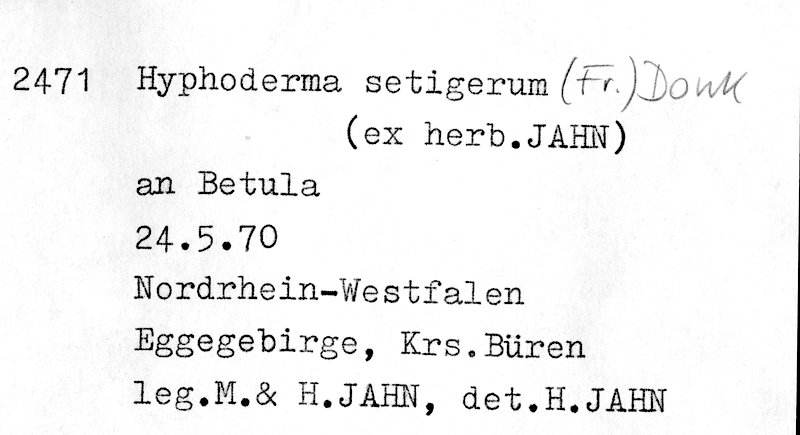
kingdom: Fungi
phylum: Basidiomycota
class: Agaricomycetes
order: Polyporales
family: Hyphodermataceae
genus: Hyphoderma
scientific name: Hyphoderma setigerum
